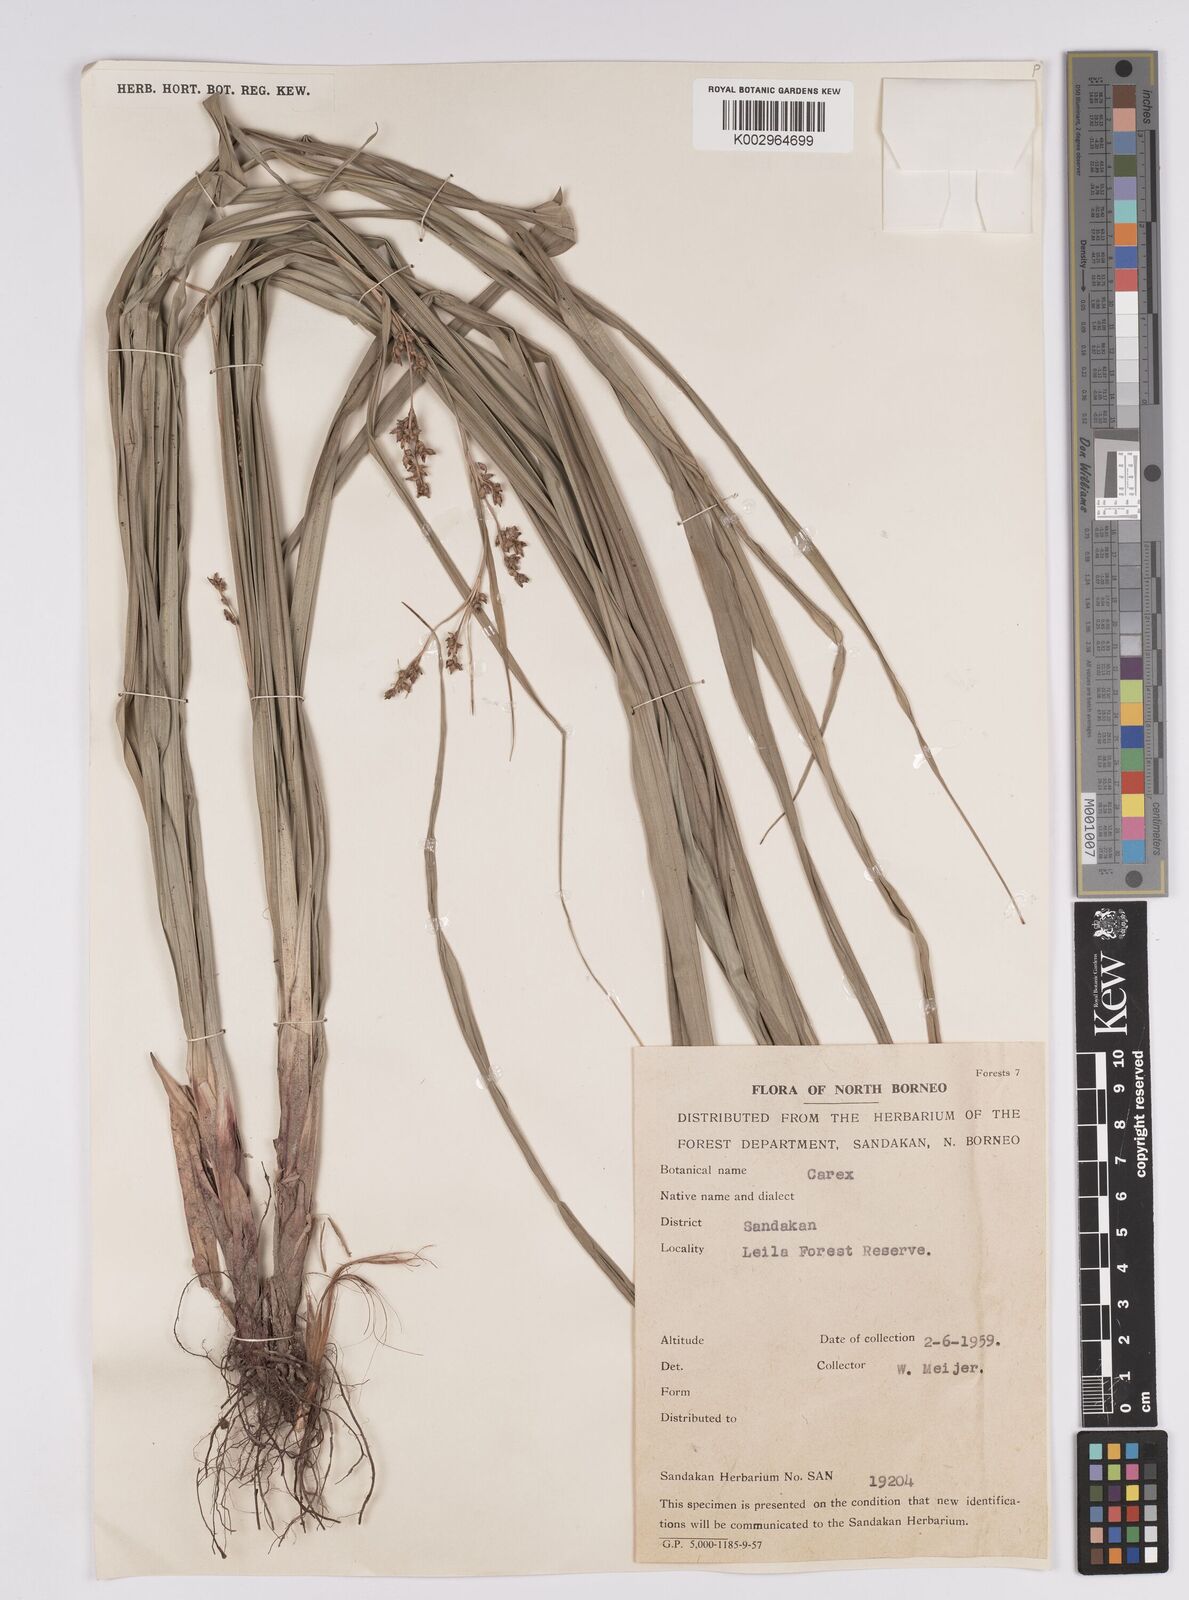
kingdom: Plantae
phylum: Tracheophyta
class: Liliopsida
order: Poales
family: Cyperaceae
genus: Scleria
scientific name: Scleria
